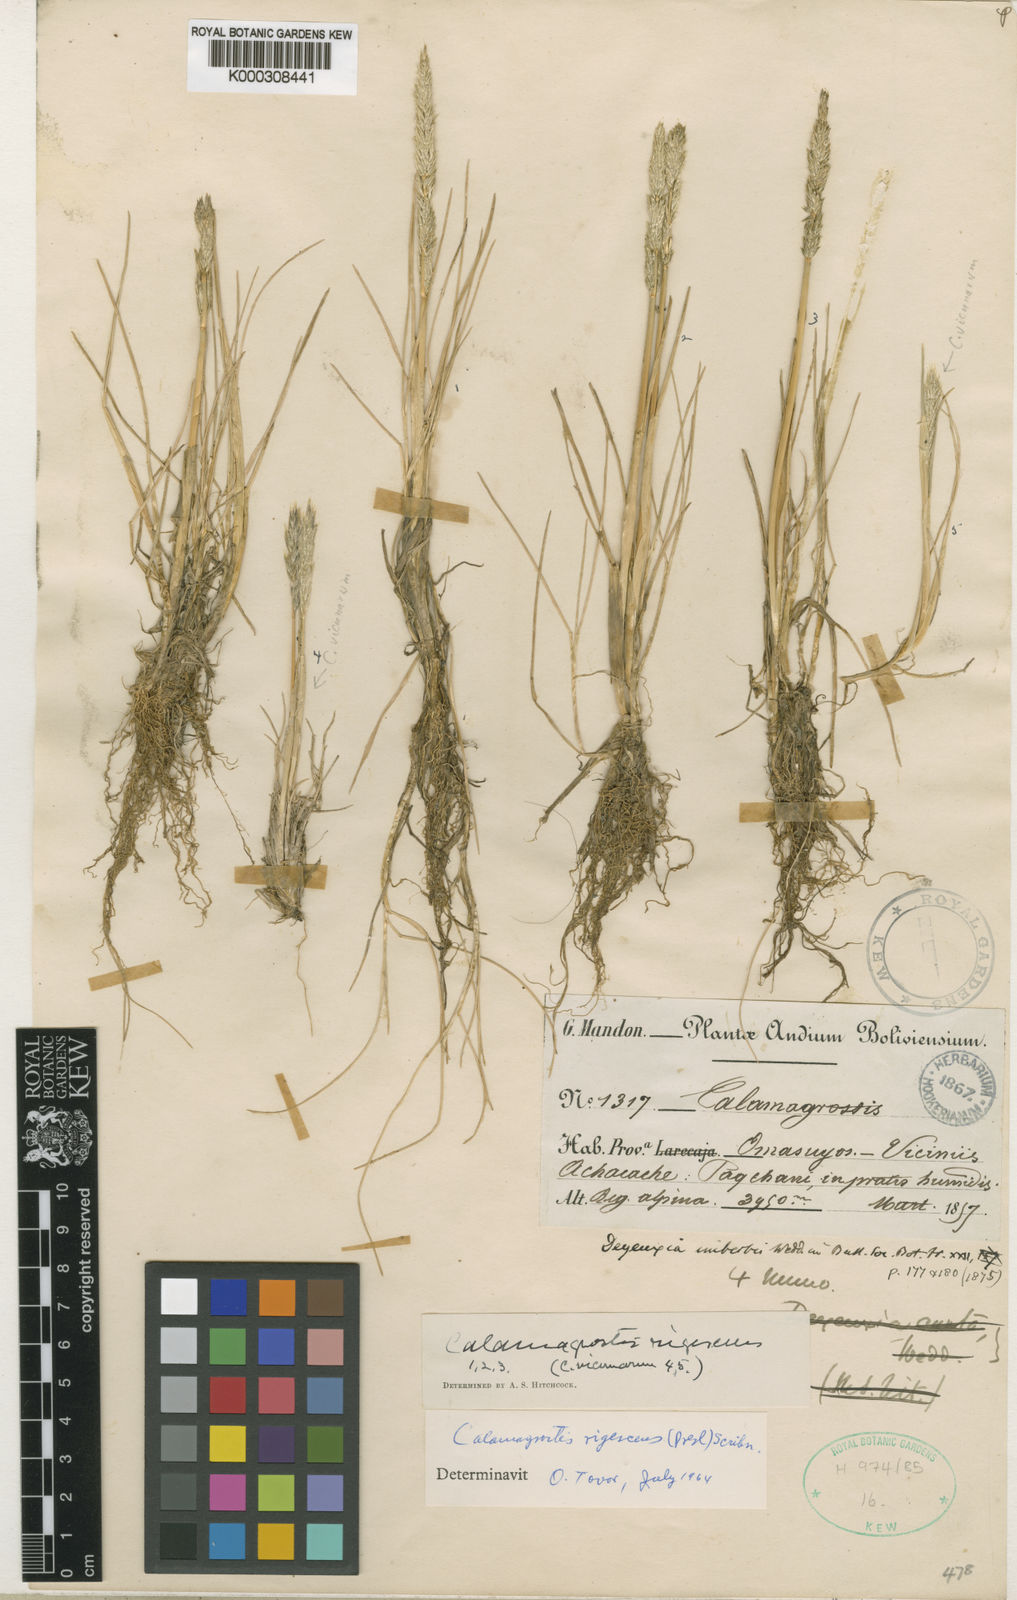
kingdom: Plantae
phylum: Tracheophyta
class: Liliopsida
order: Poales
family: Poaceae
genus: Cinnagrostis
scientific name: Cinnagrostis rigescens
